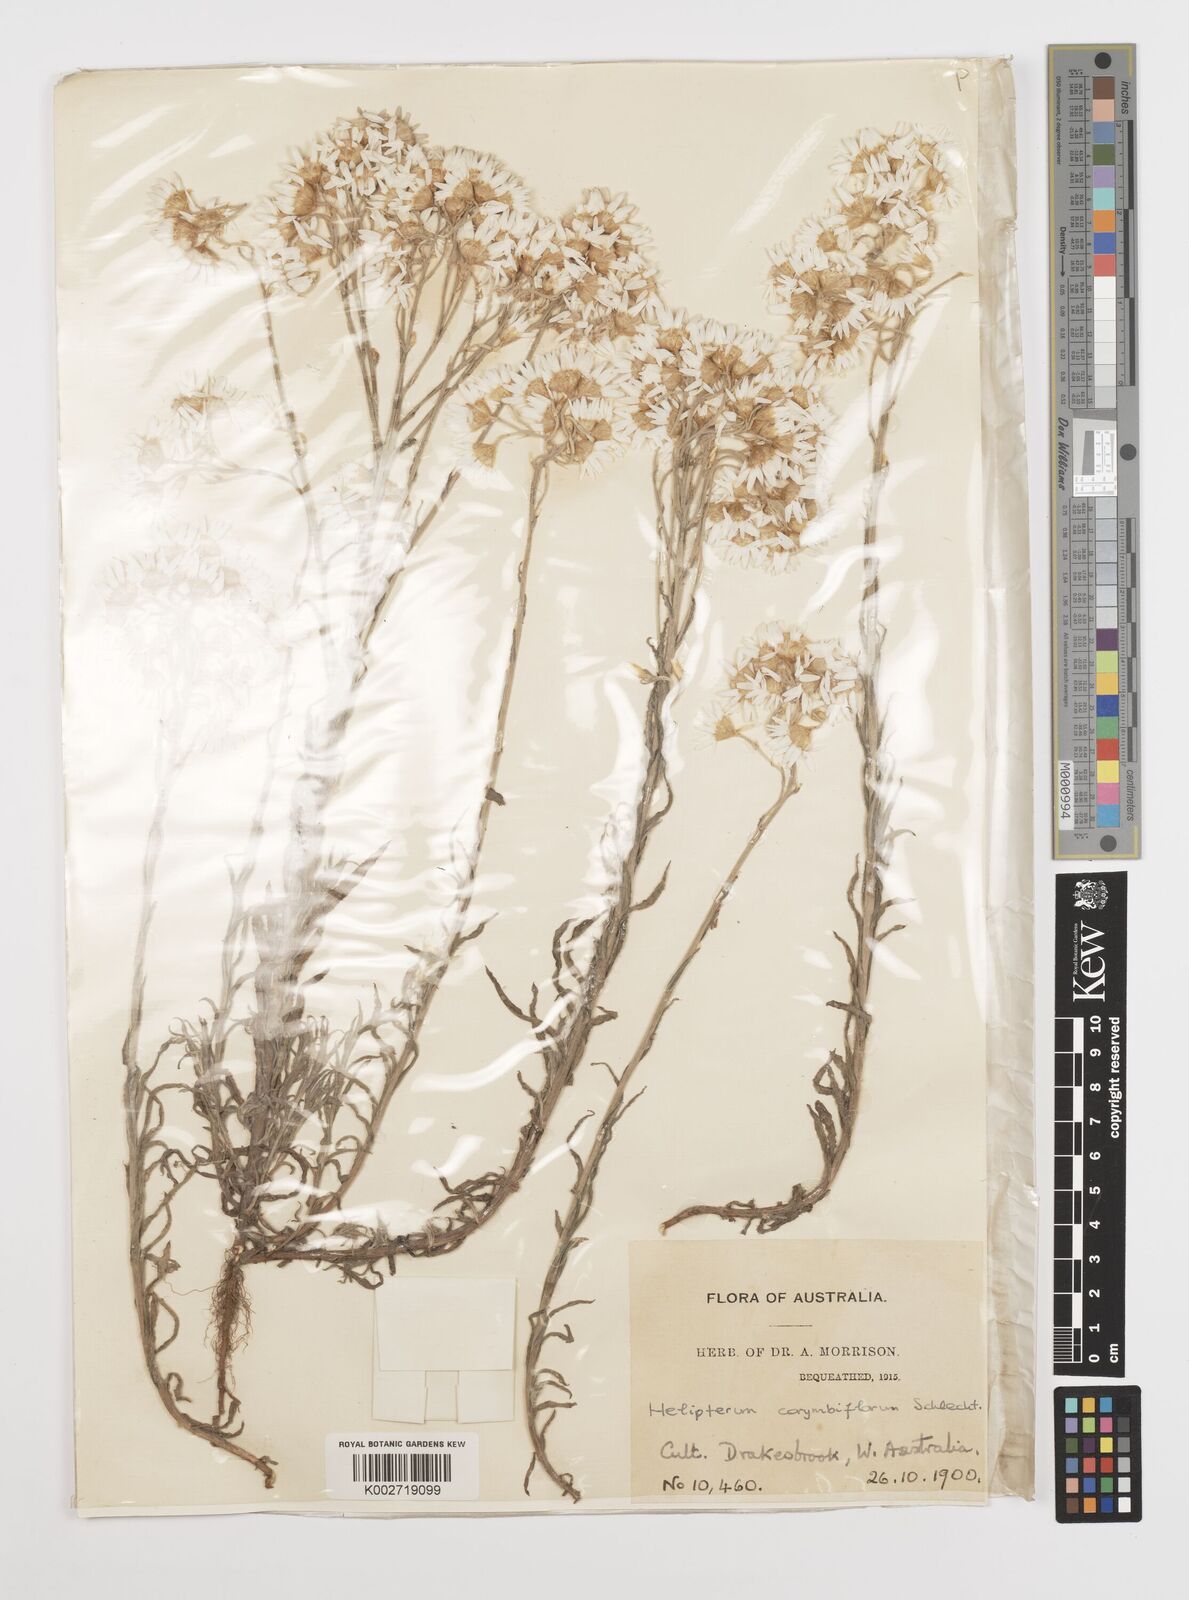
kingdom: Plantae
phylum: Tracheophyta
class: Magnoliopsida
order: Asterales
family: Asteraceae
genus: Rhodanthe
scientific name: Rhodanthe corymbiflora
